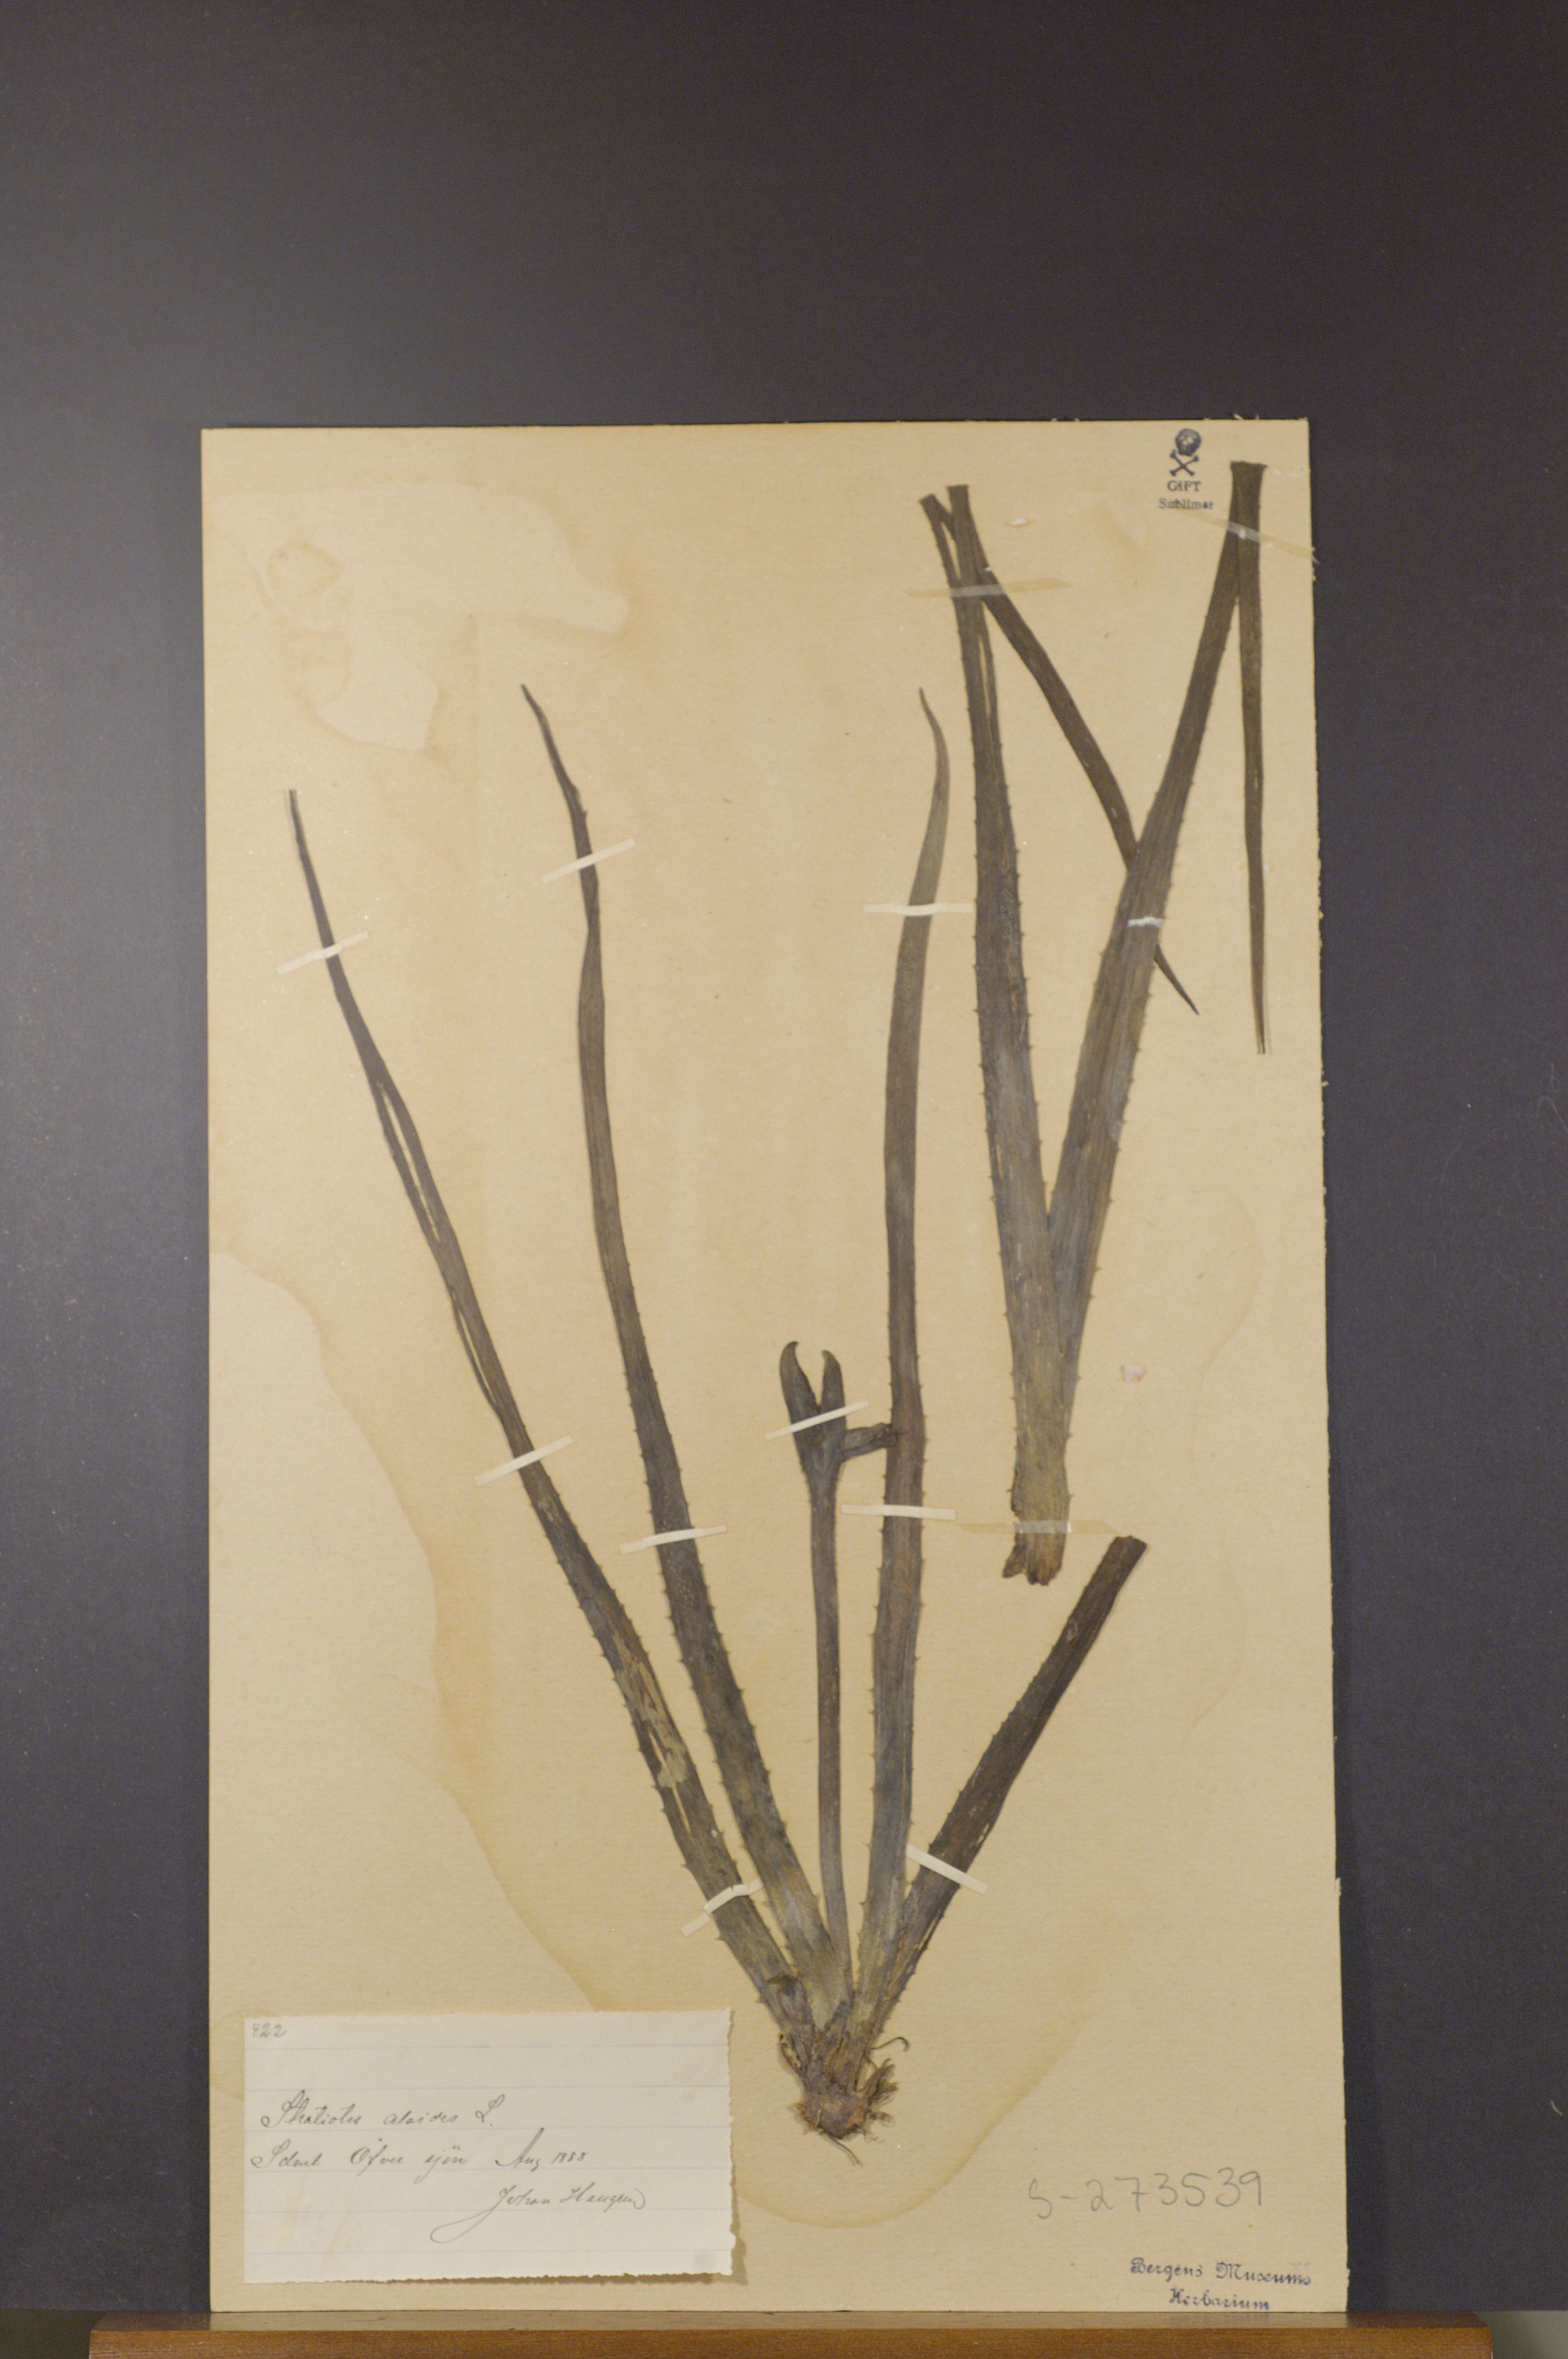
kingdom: Plantae
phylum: Tracheophyta
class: Liliopsida
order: Alismatales
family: Hydrocharitaceae
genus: Stratiotes
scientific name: Stratiotes aloides
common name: Water-soldier
